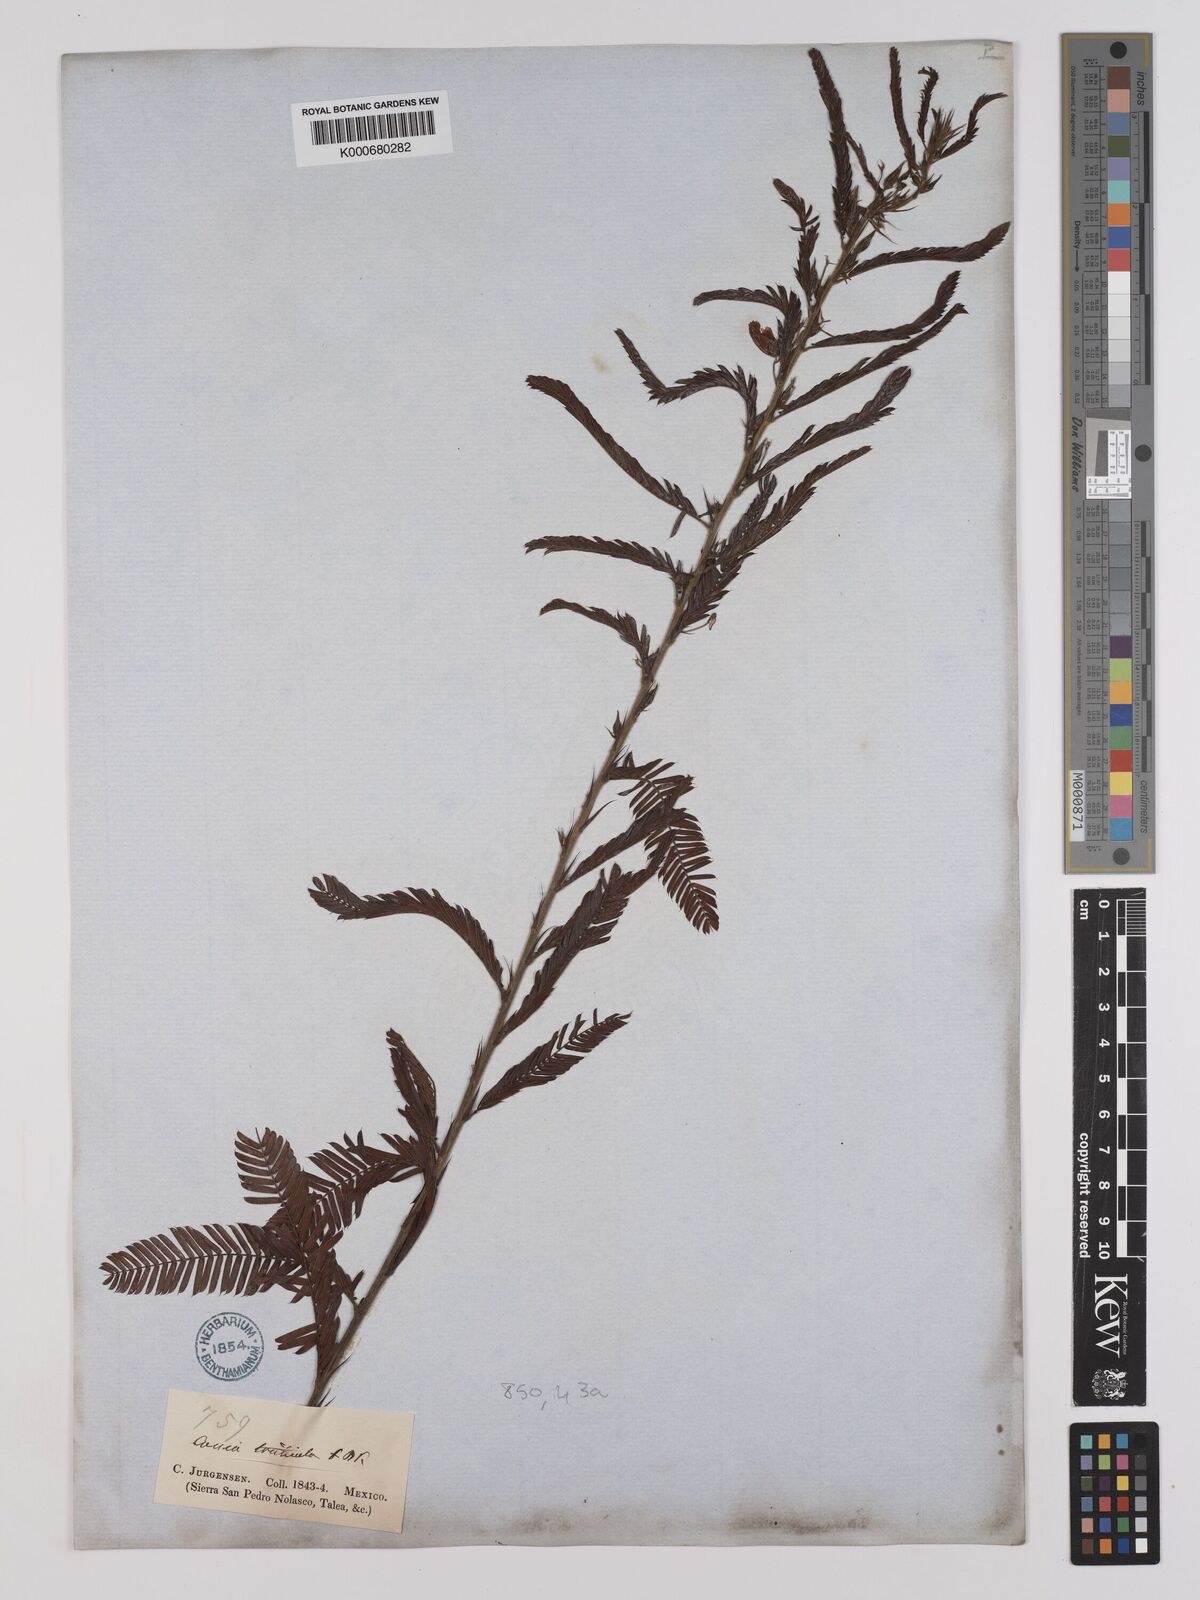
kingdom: Plantae
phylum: Tracheophyta
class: Magnoliopsida
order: Fabales
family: Fabaceae
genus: Chamaecrista
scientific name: Chamaecrista glandulosa
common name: Wild peas
